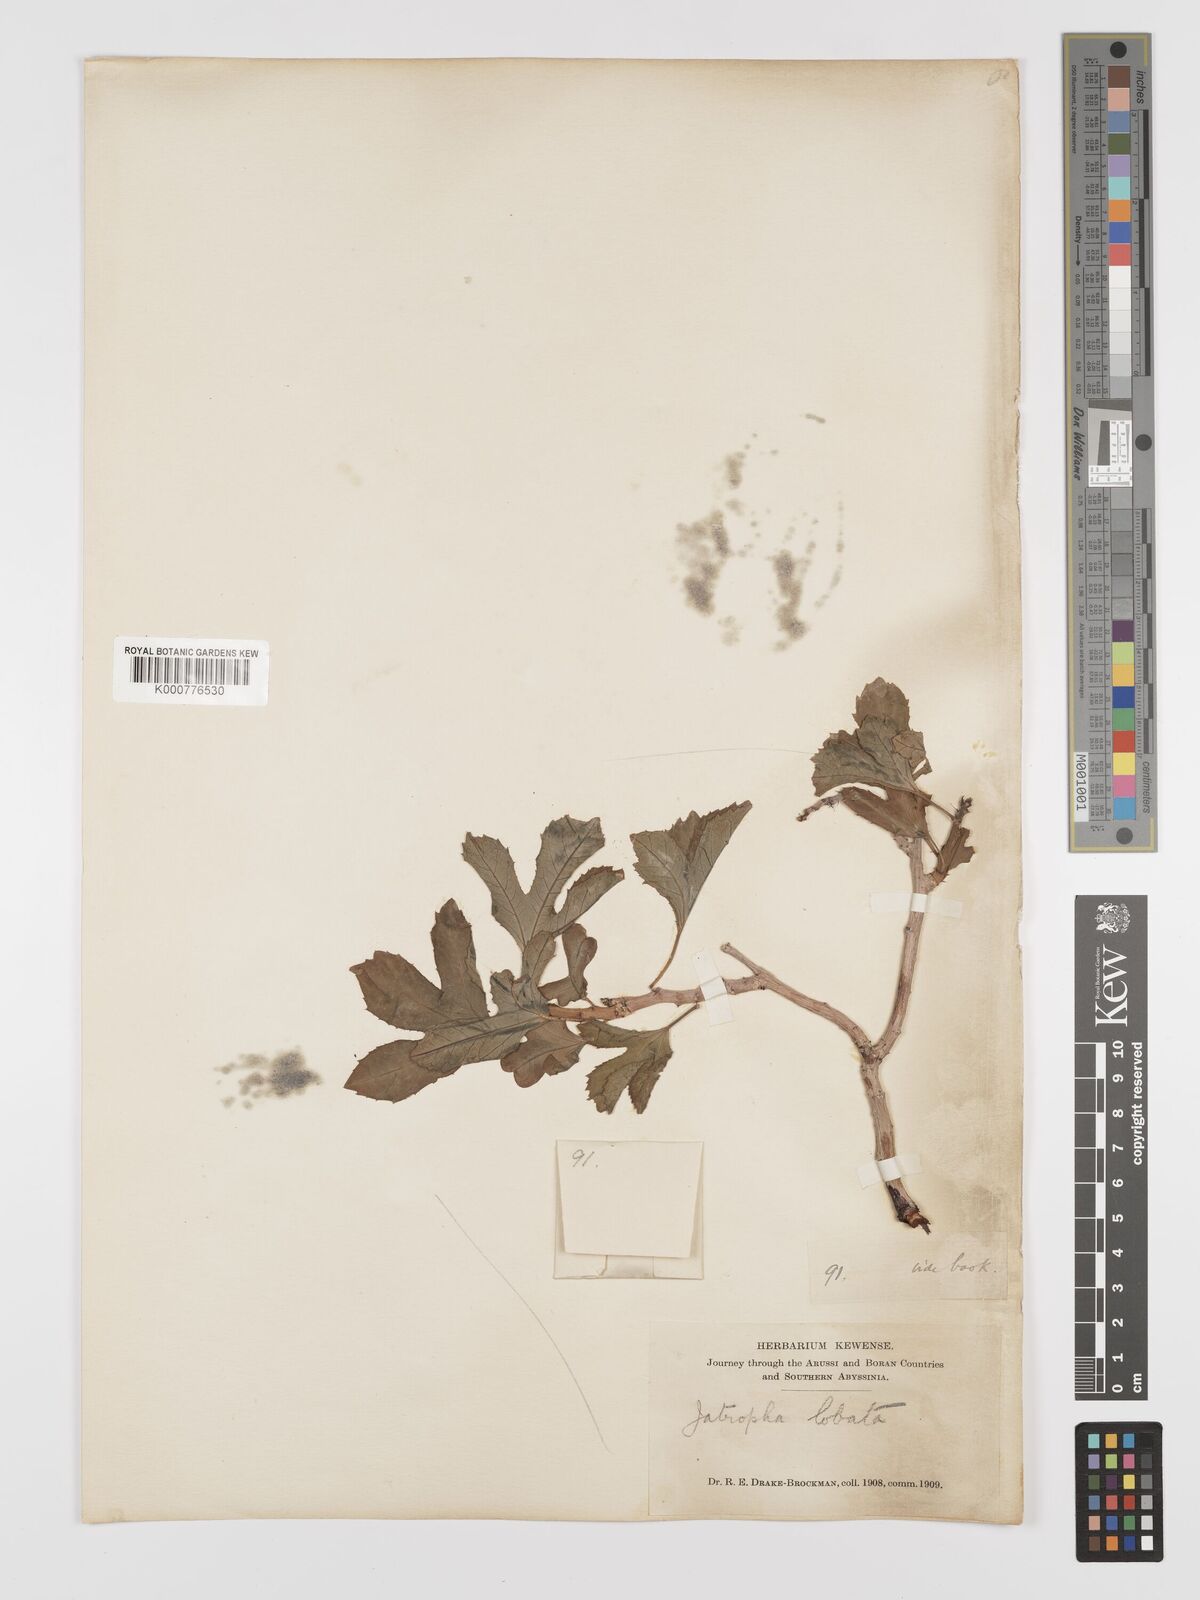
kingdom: Plantae
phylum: Tracheophyta
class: Magnoliopsida
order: Malpighiales
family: Euphorbiaceae
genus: Jatropha
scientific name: Jatropha glauca
